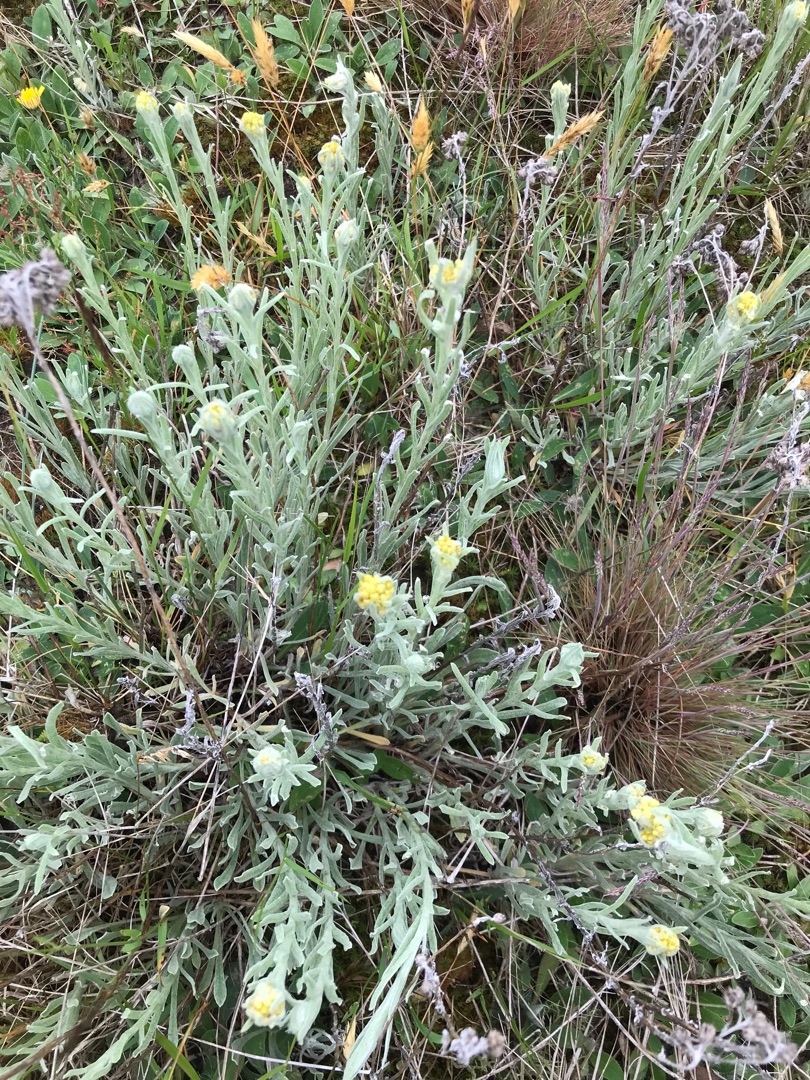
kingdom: Plantae
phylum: Tracheophyta
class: Magnoliopsida
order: Asterales
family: Asteraceae
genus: Helichrysum
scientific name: Helichrysum arenarium
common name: Gul evighedsblomst
